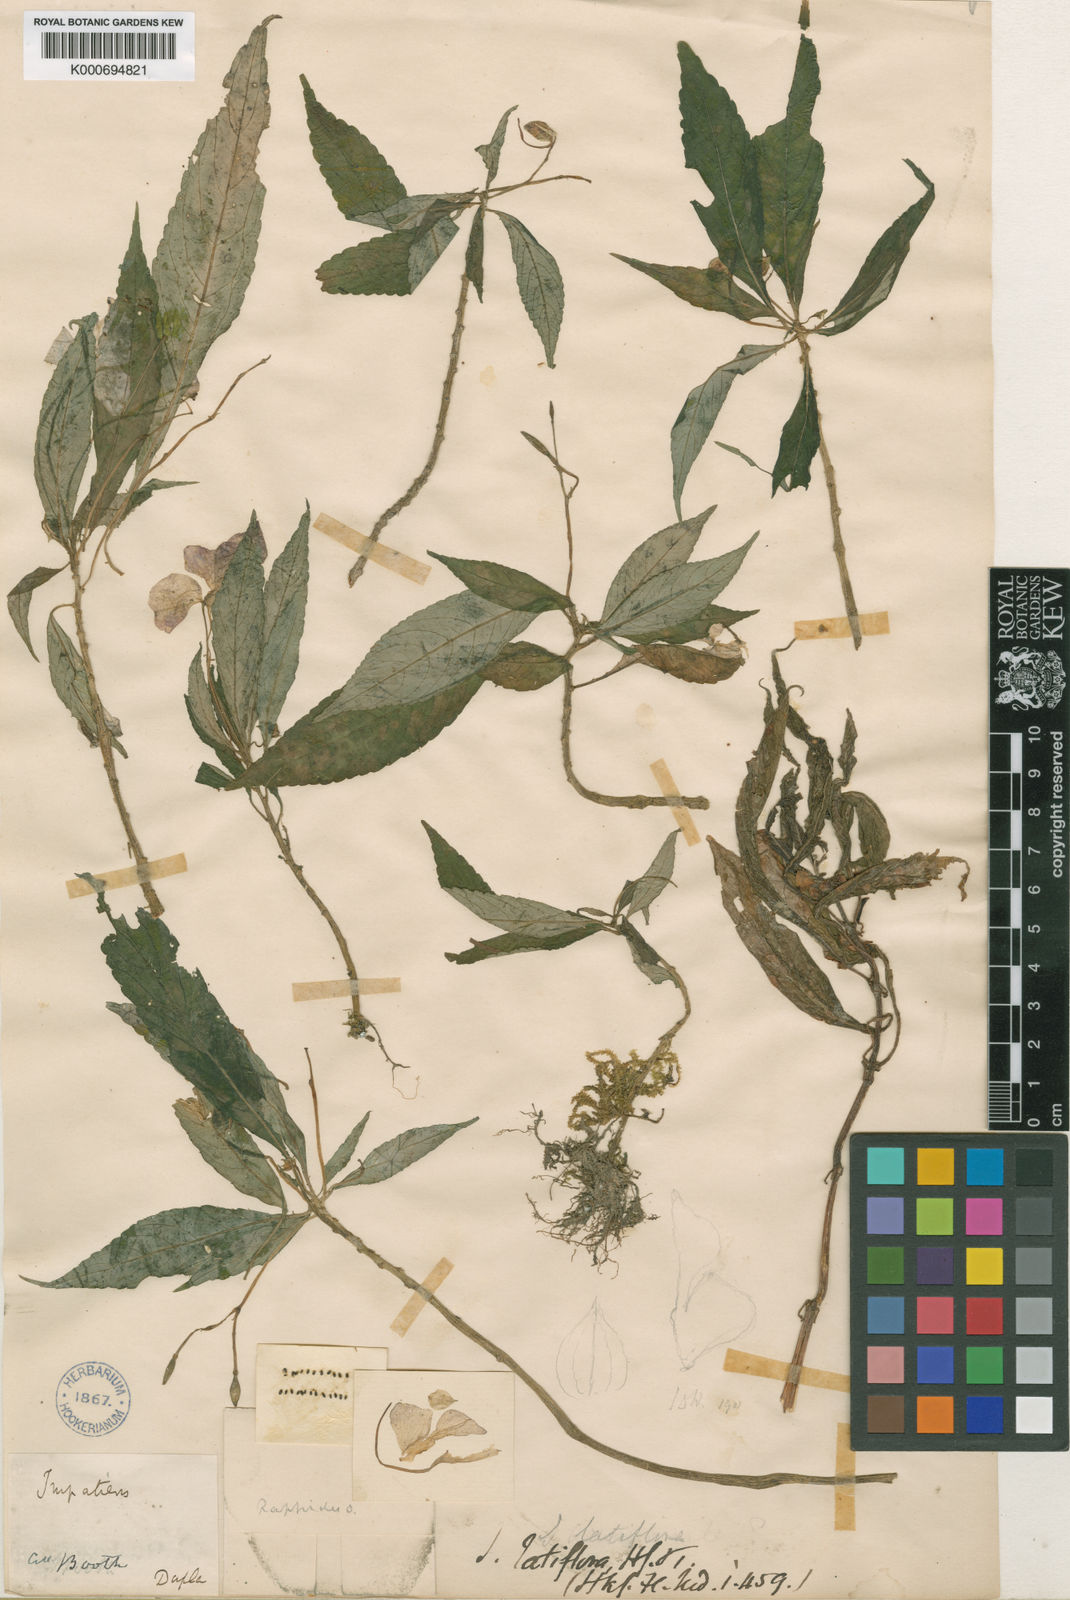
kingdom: Plantae
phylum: Tracheophyta
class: Magnoliopsida
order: Ericales
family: Balsaminaceae
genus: Impatiens
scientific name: Impatiens latiflora
